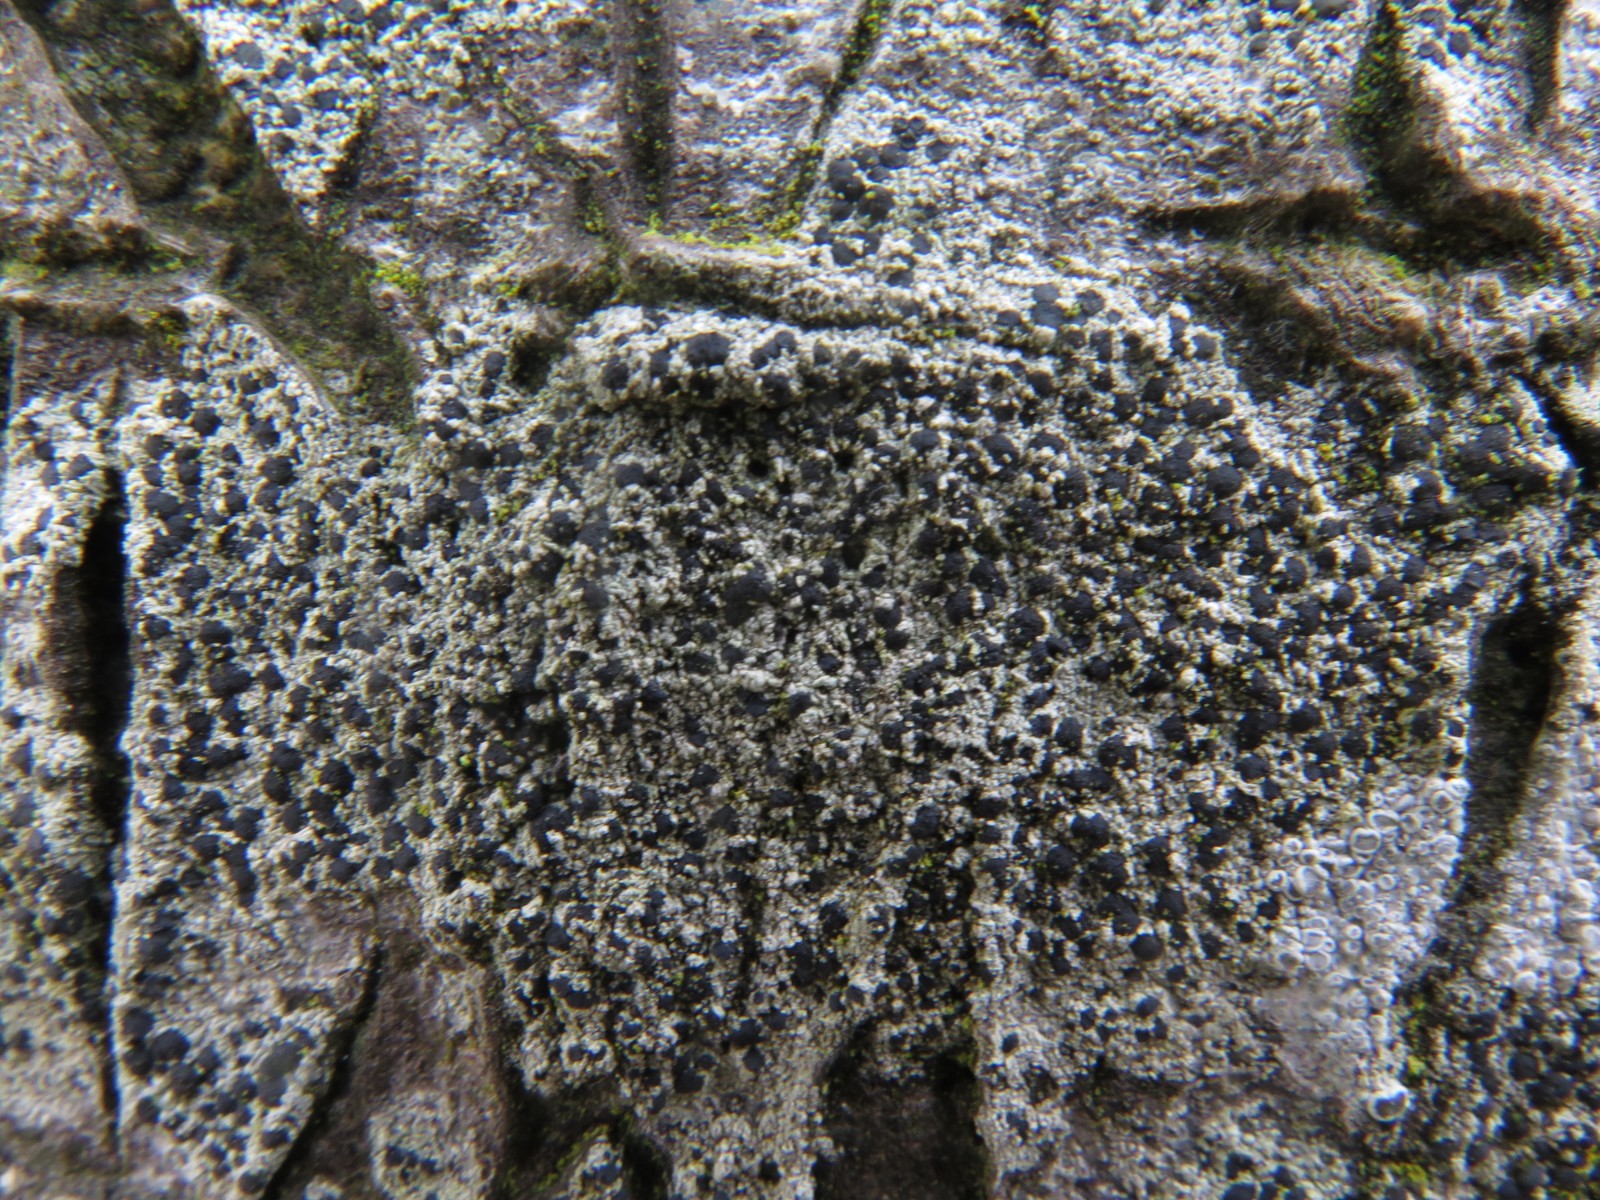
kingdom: Fungi
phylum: Ascomycota
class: Lecanoromycetes
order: Lecanorales
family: Lecanoraceae
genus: Lecidella
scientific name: Lecidella euphorea
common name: vortet skivelav
